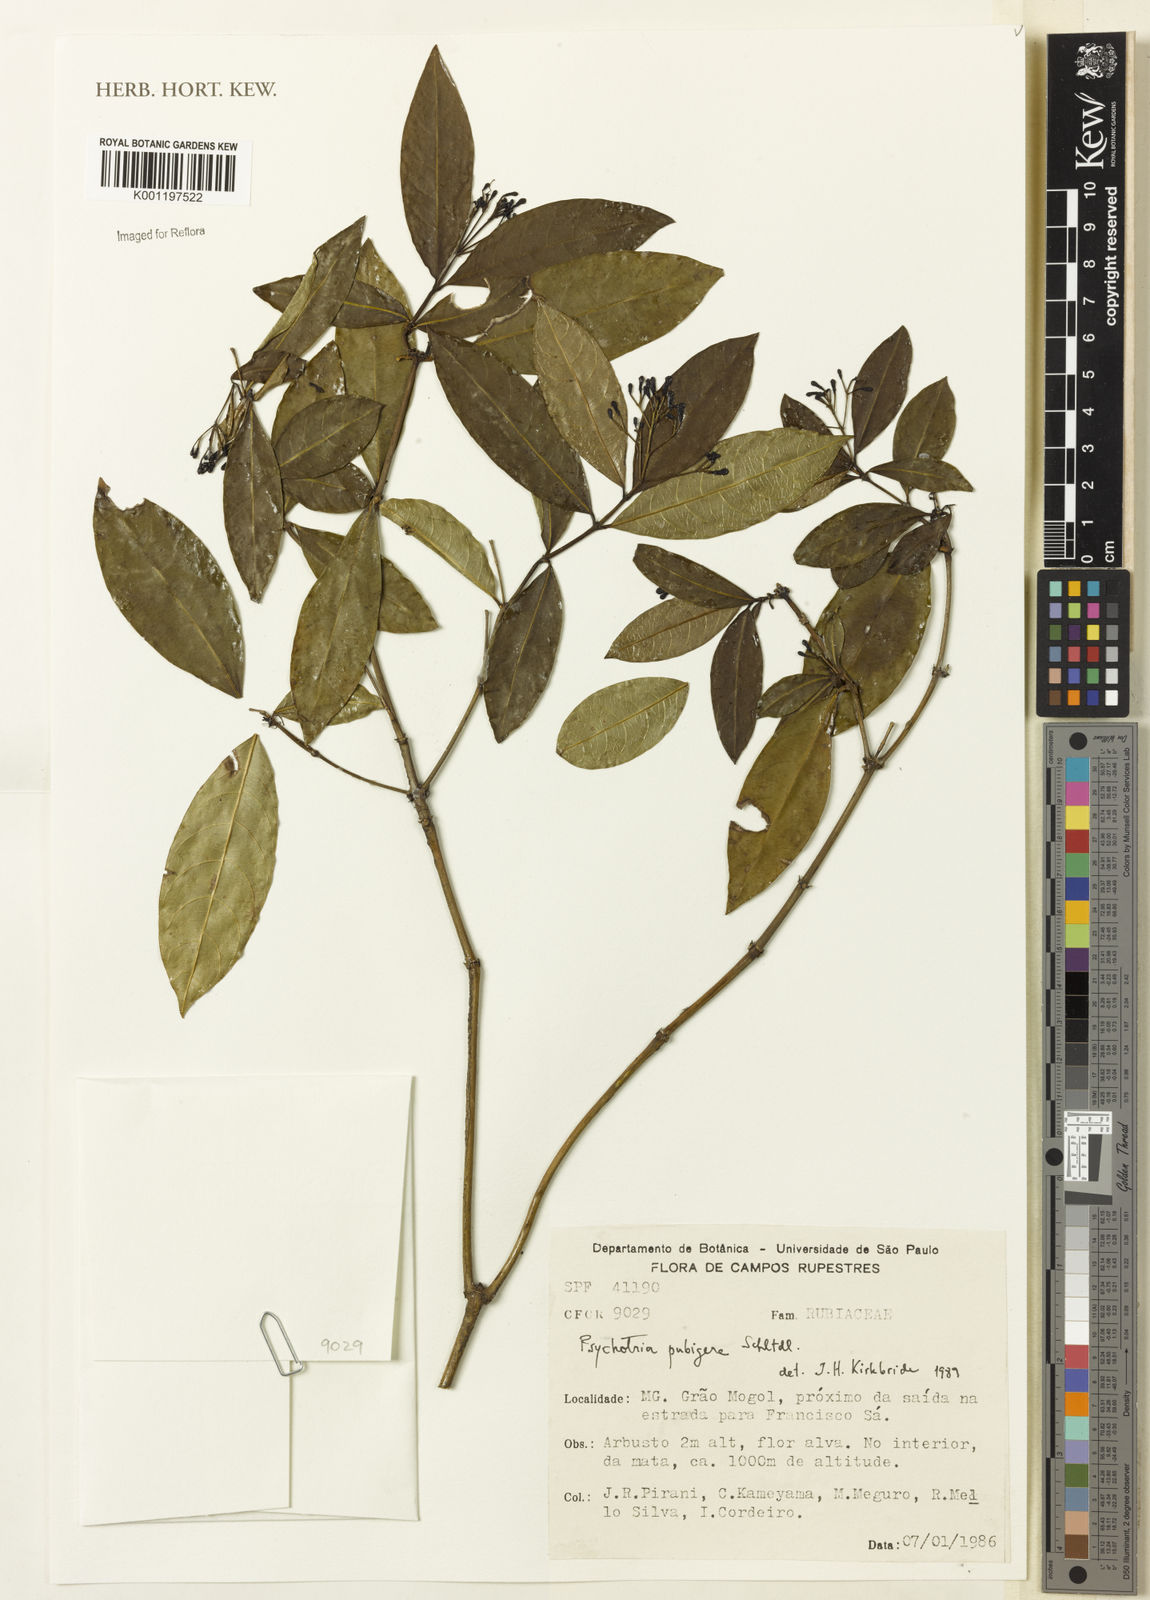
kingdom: Plantae
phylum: Tracheophyta
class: Magnoliopsida
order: Gentianales
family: Rubiaceae
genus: Psychotria
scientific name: Psychotria nemorosa
